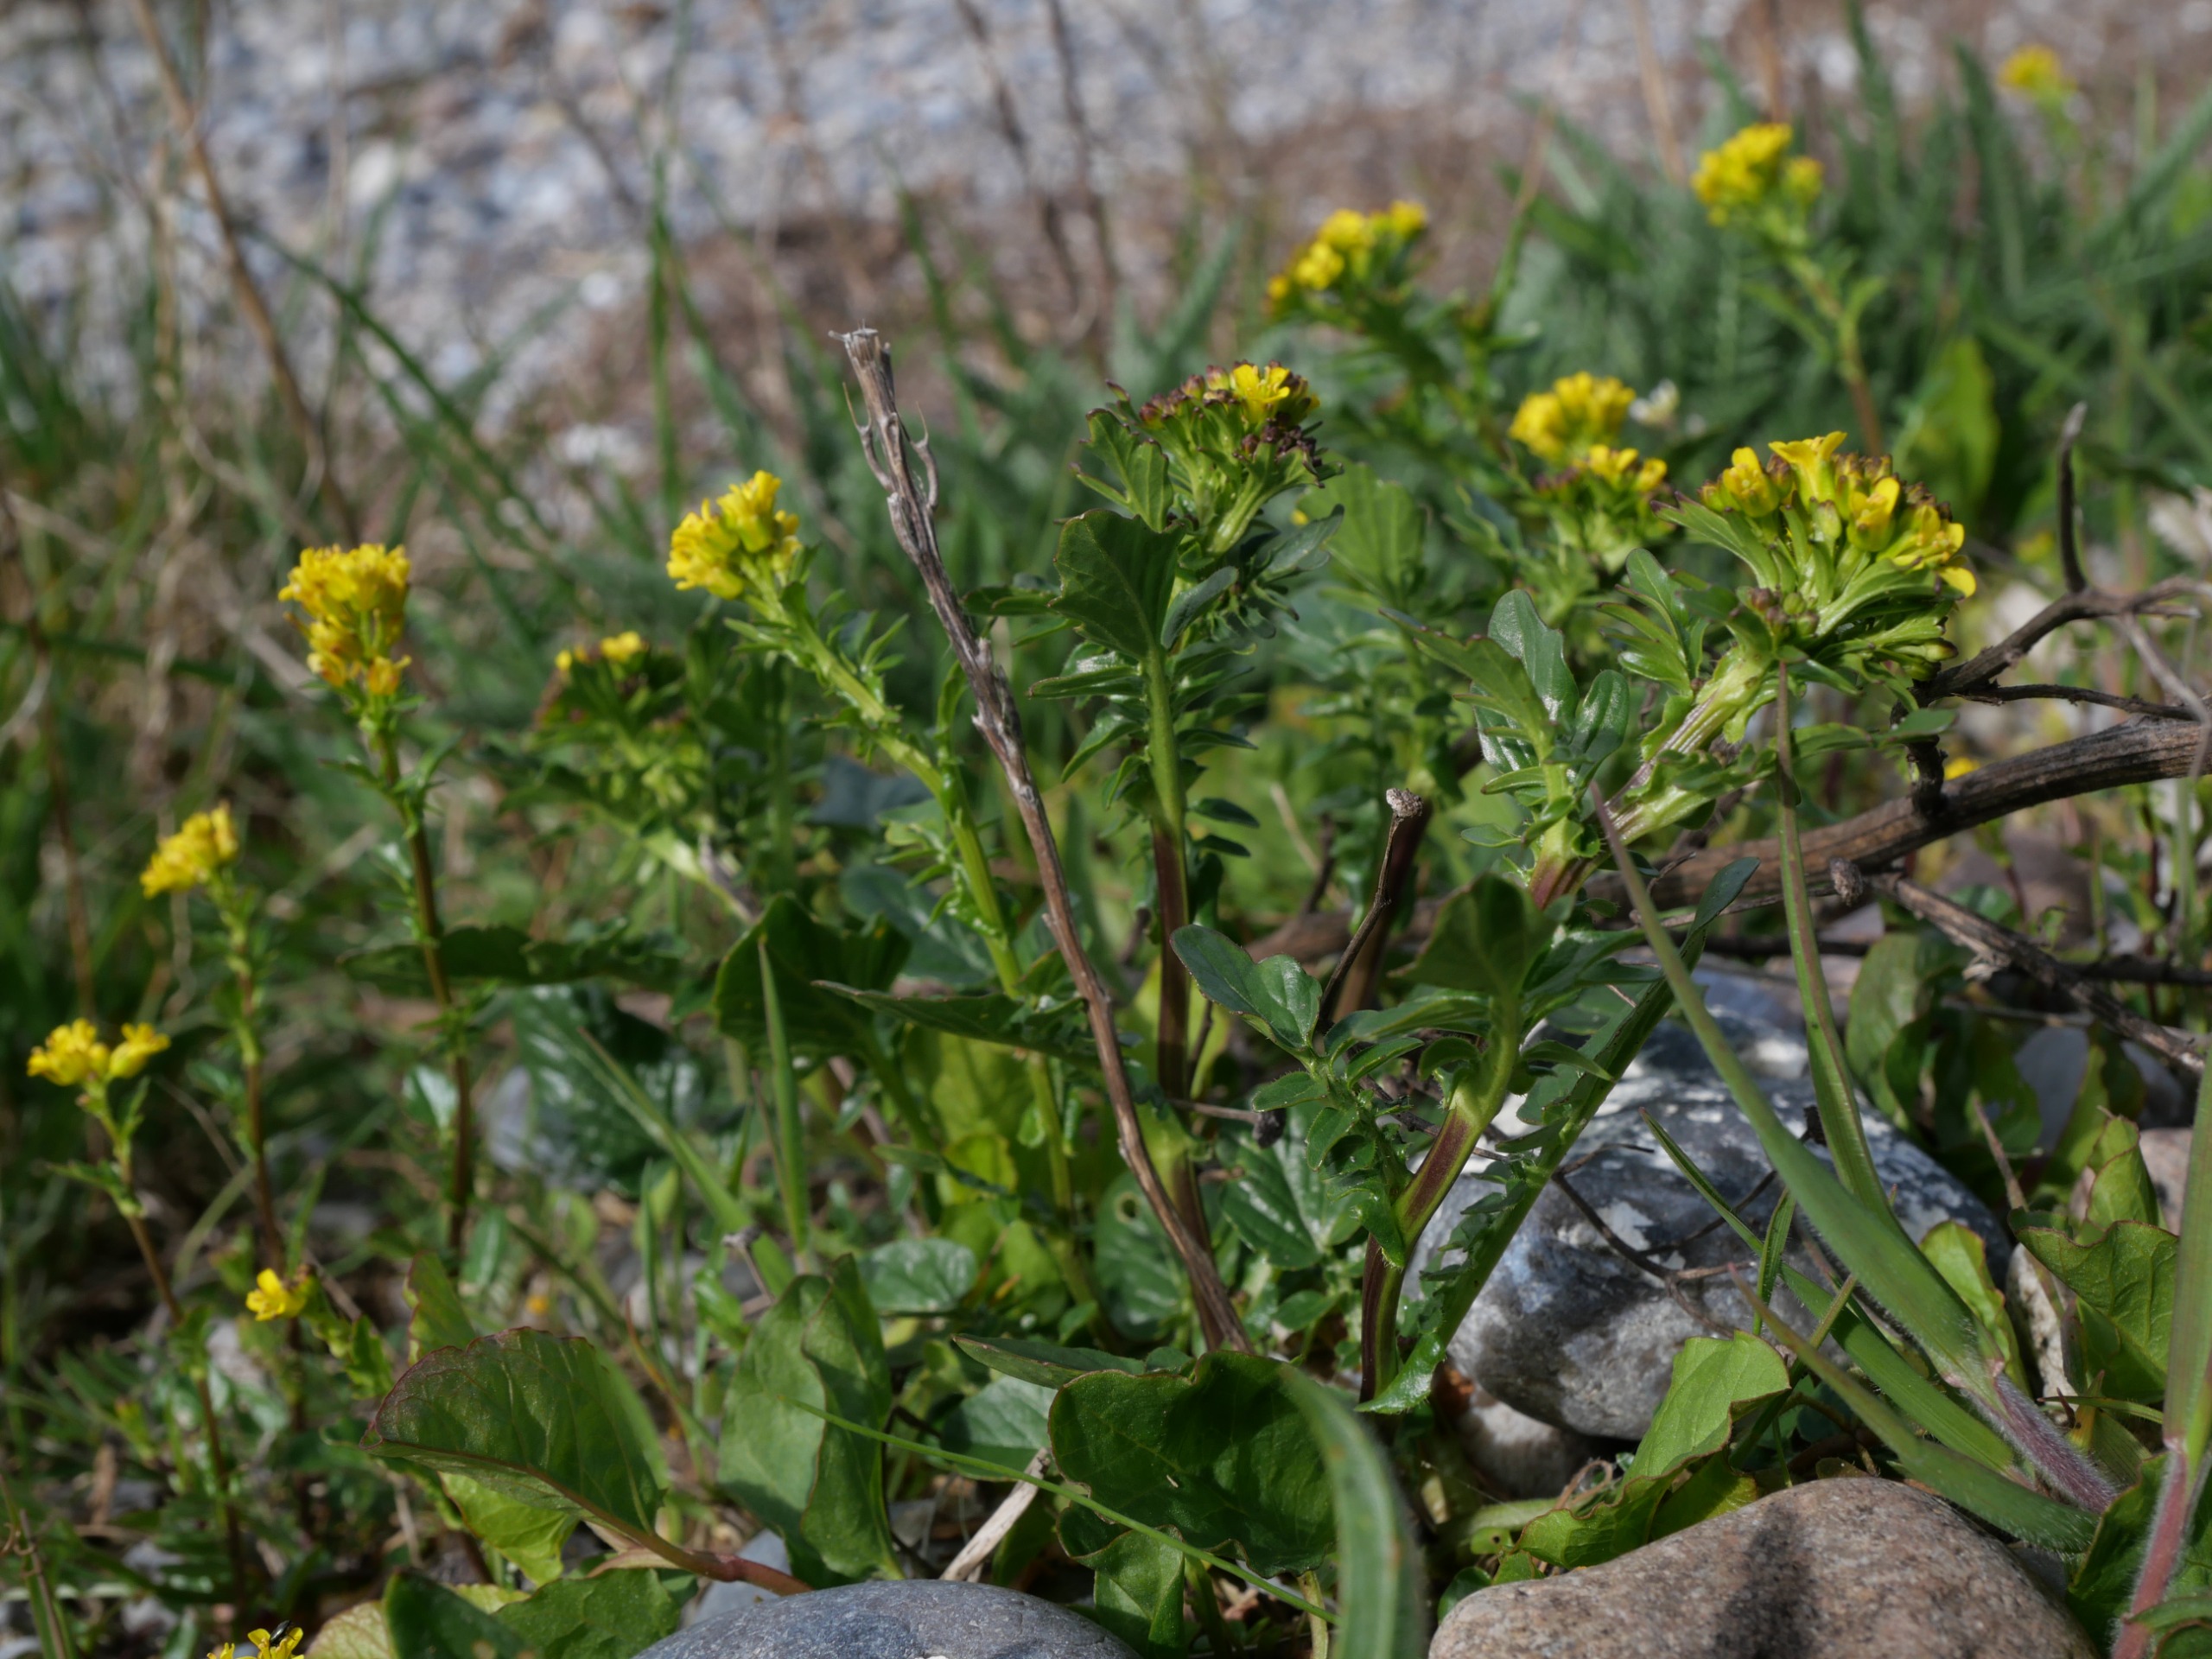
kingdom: Plantae
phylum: Tracheophyta
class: Magnoliopsida
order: Brassicales
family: Brassicaceae
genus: Barbarea
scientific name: Barbarea intermedia
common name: Randhåret vinterkarse
